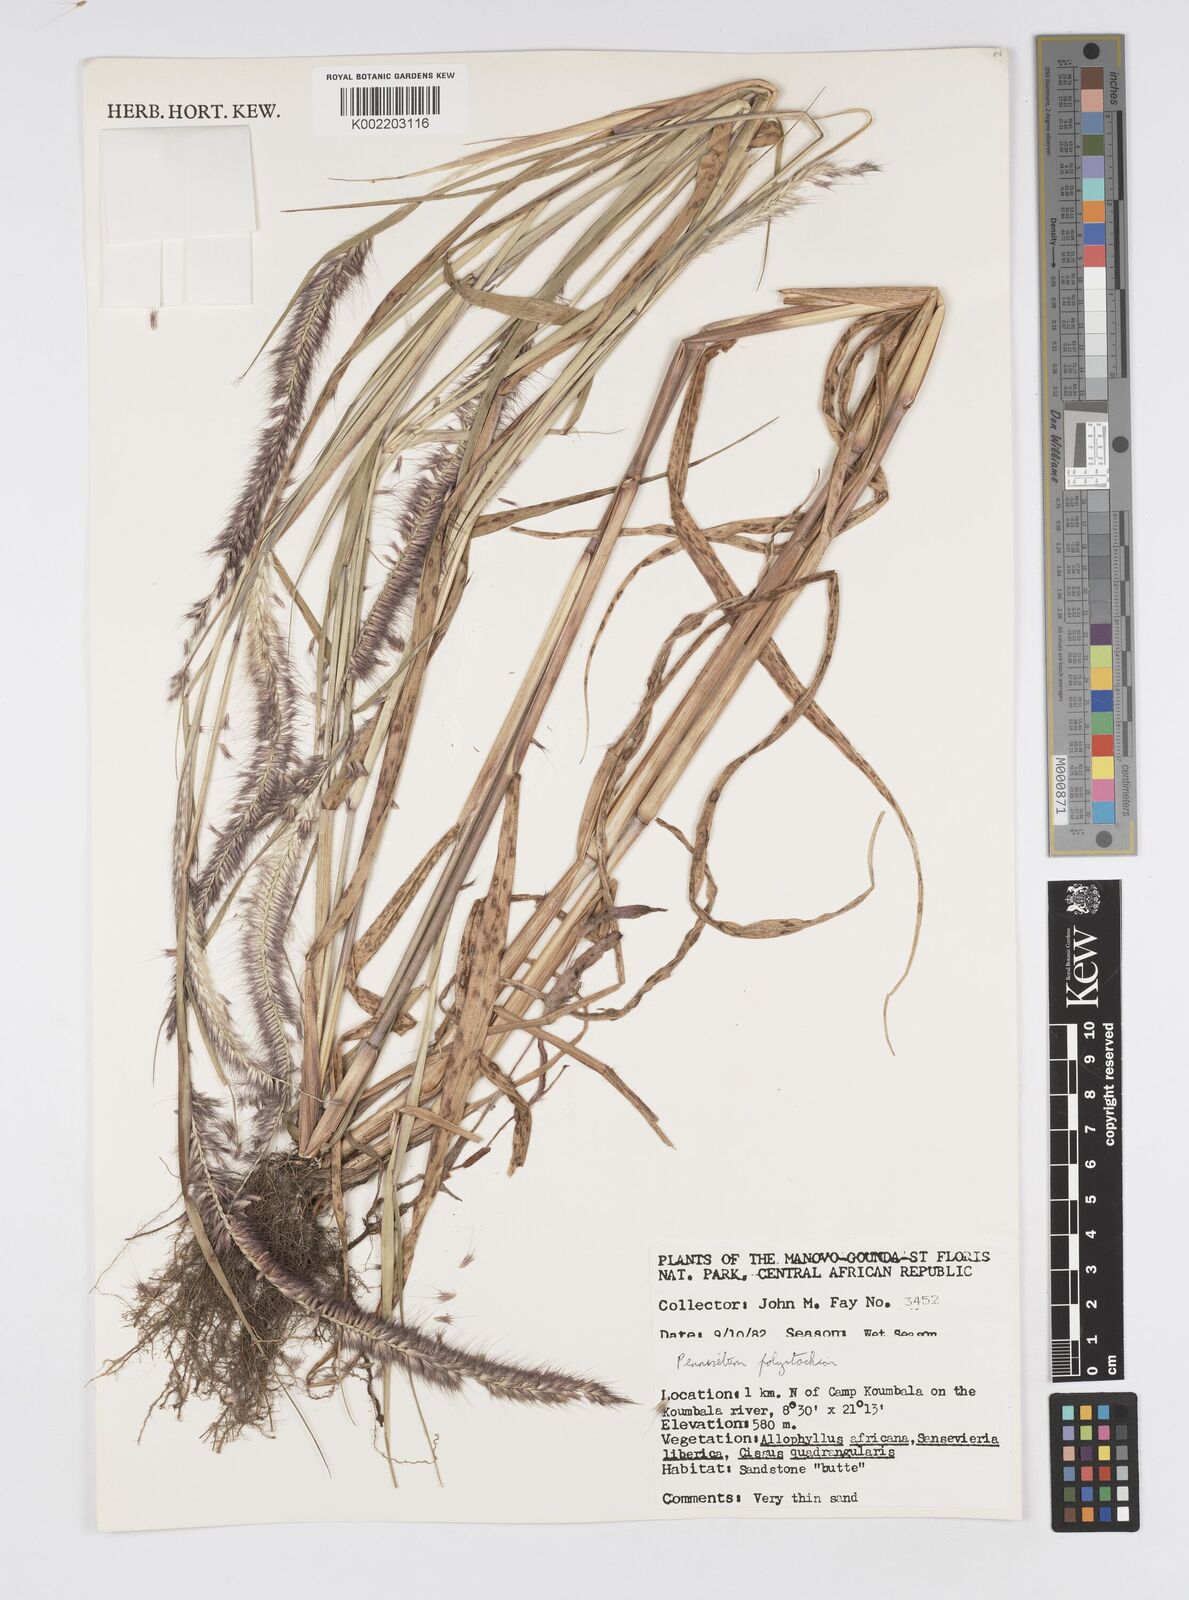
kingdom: Plantae
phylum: Tracheophyta
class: Liliopsida
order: Poales
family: Poaceae
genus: Setaria
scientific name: Setaria parviflora
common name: Knotroot bristle-grass
